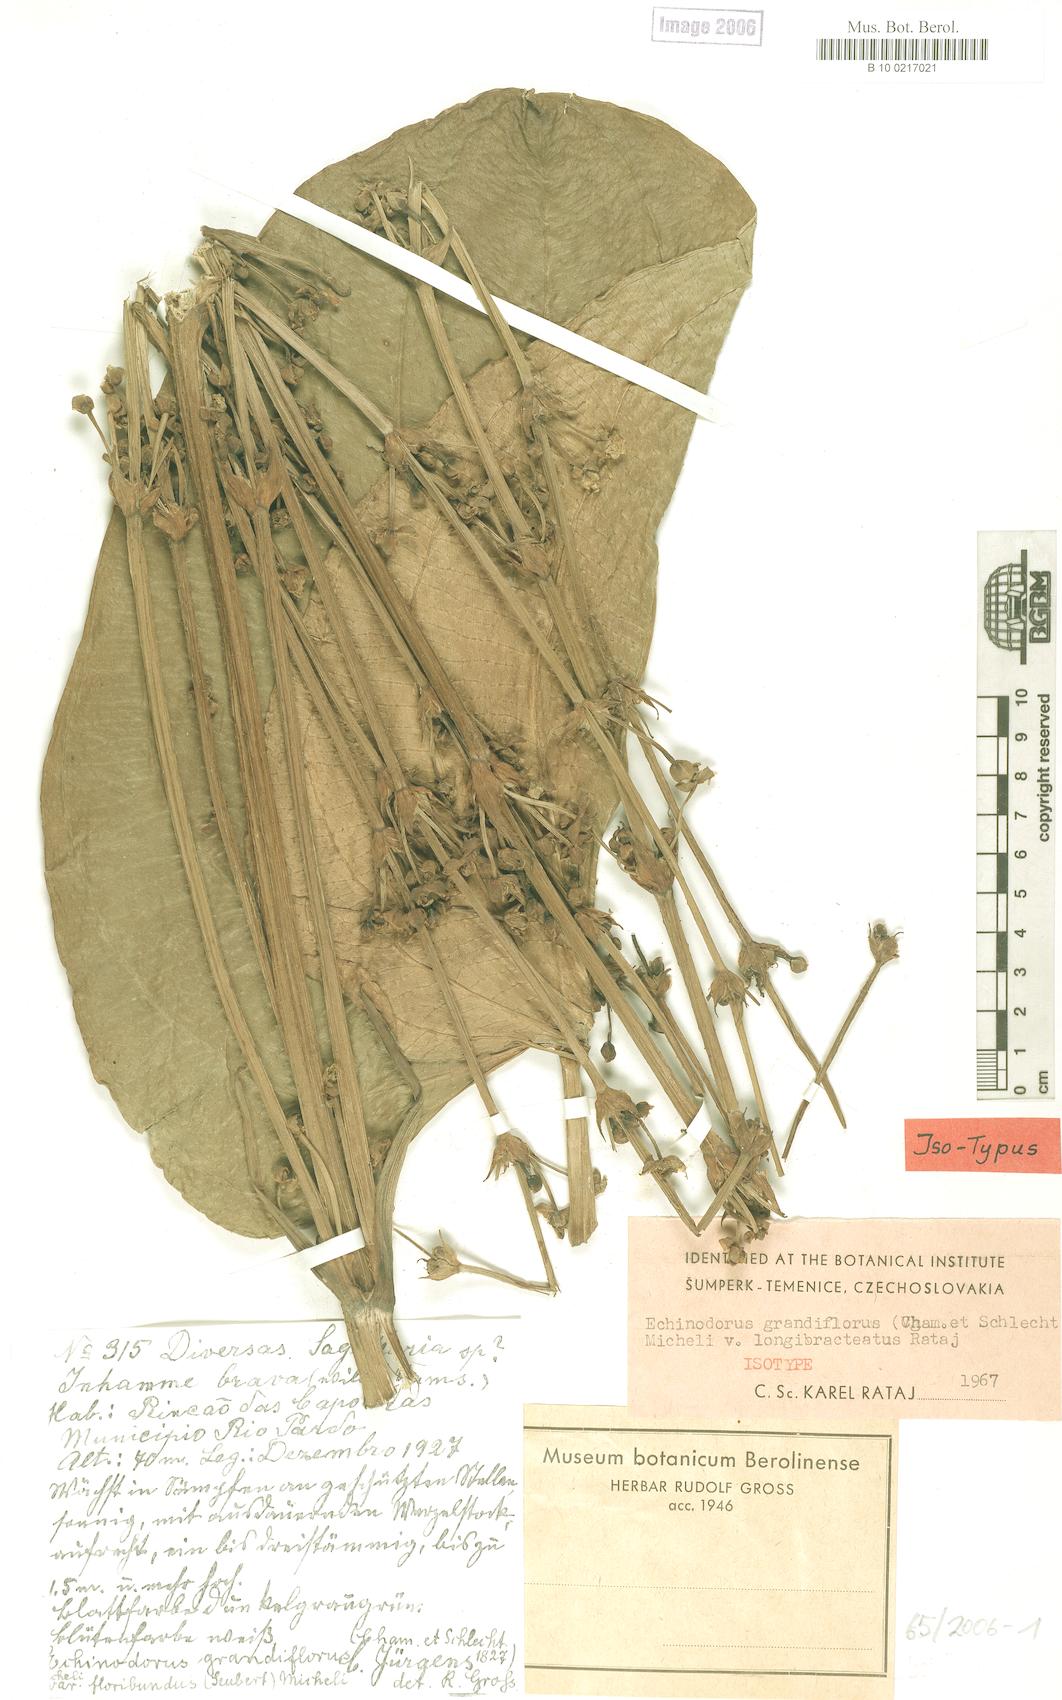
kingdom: Plantae
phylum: Tracheophyta
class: Liliopsida
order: Alismatales
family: Alismataceae
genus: Aquarius
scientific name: Aquarius floribundus
